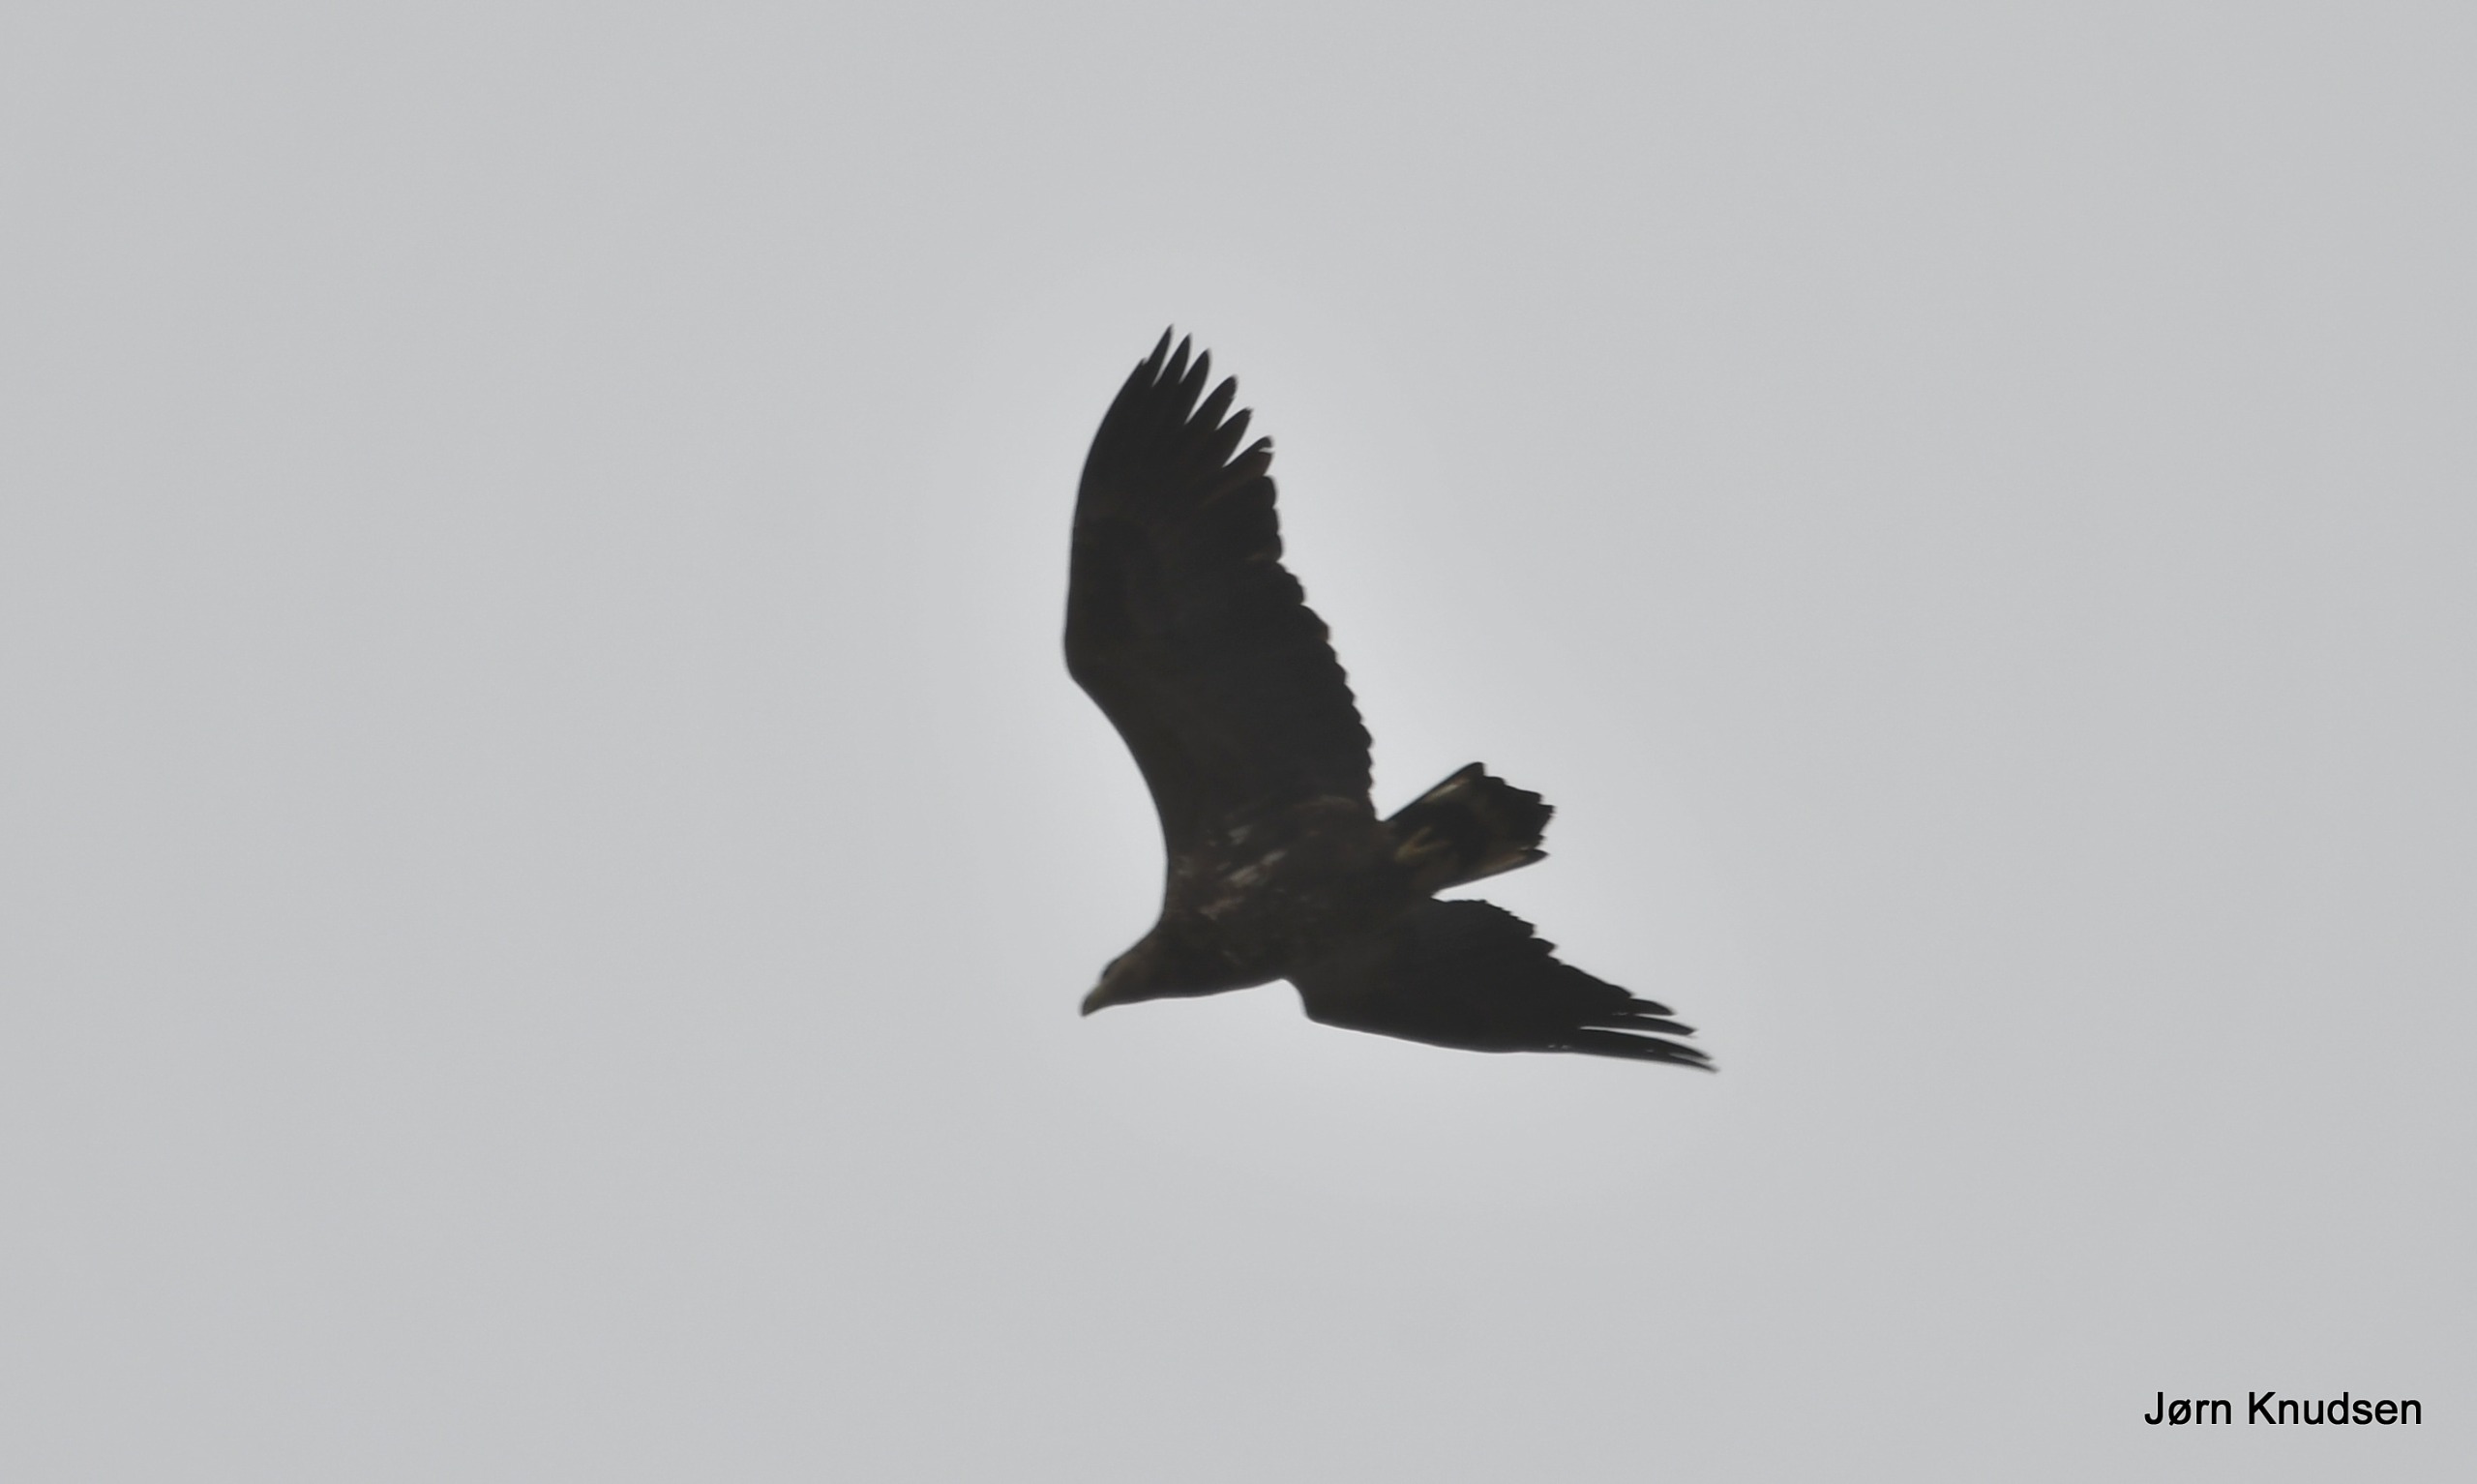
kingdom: Animalia
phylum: Chordata
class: Aves
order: Accipitriformes
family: Accipitridae
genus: Haliaeetus
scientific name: Haliaeetus albicilla
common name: Havørn
